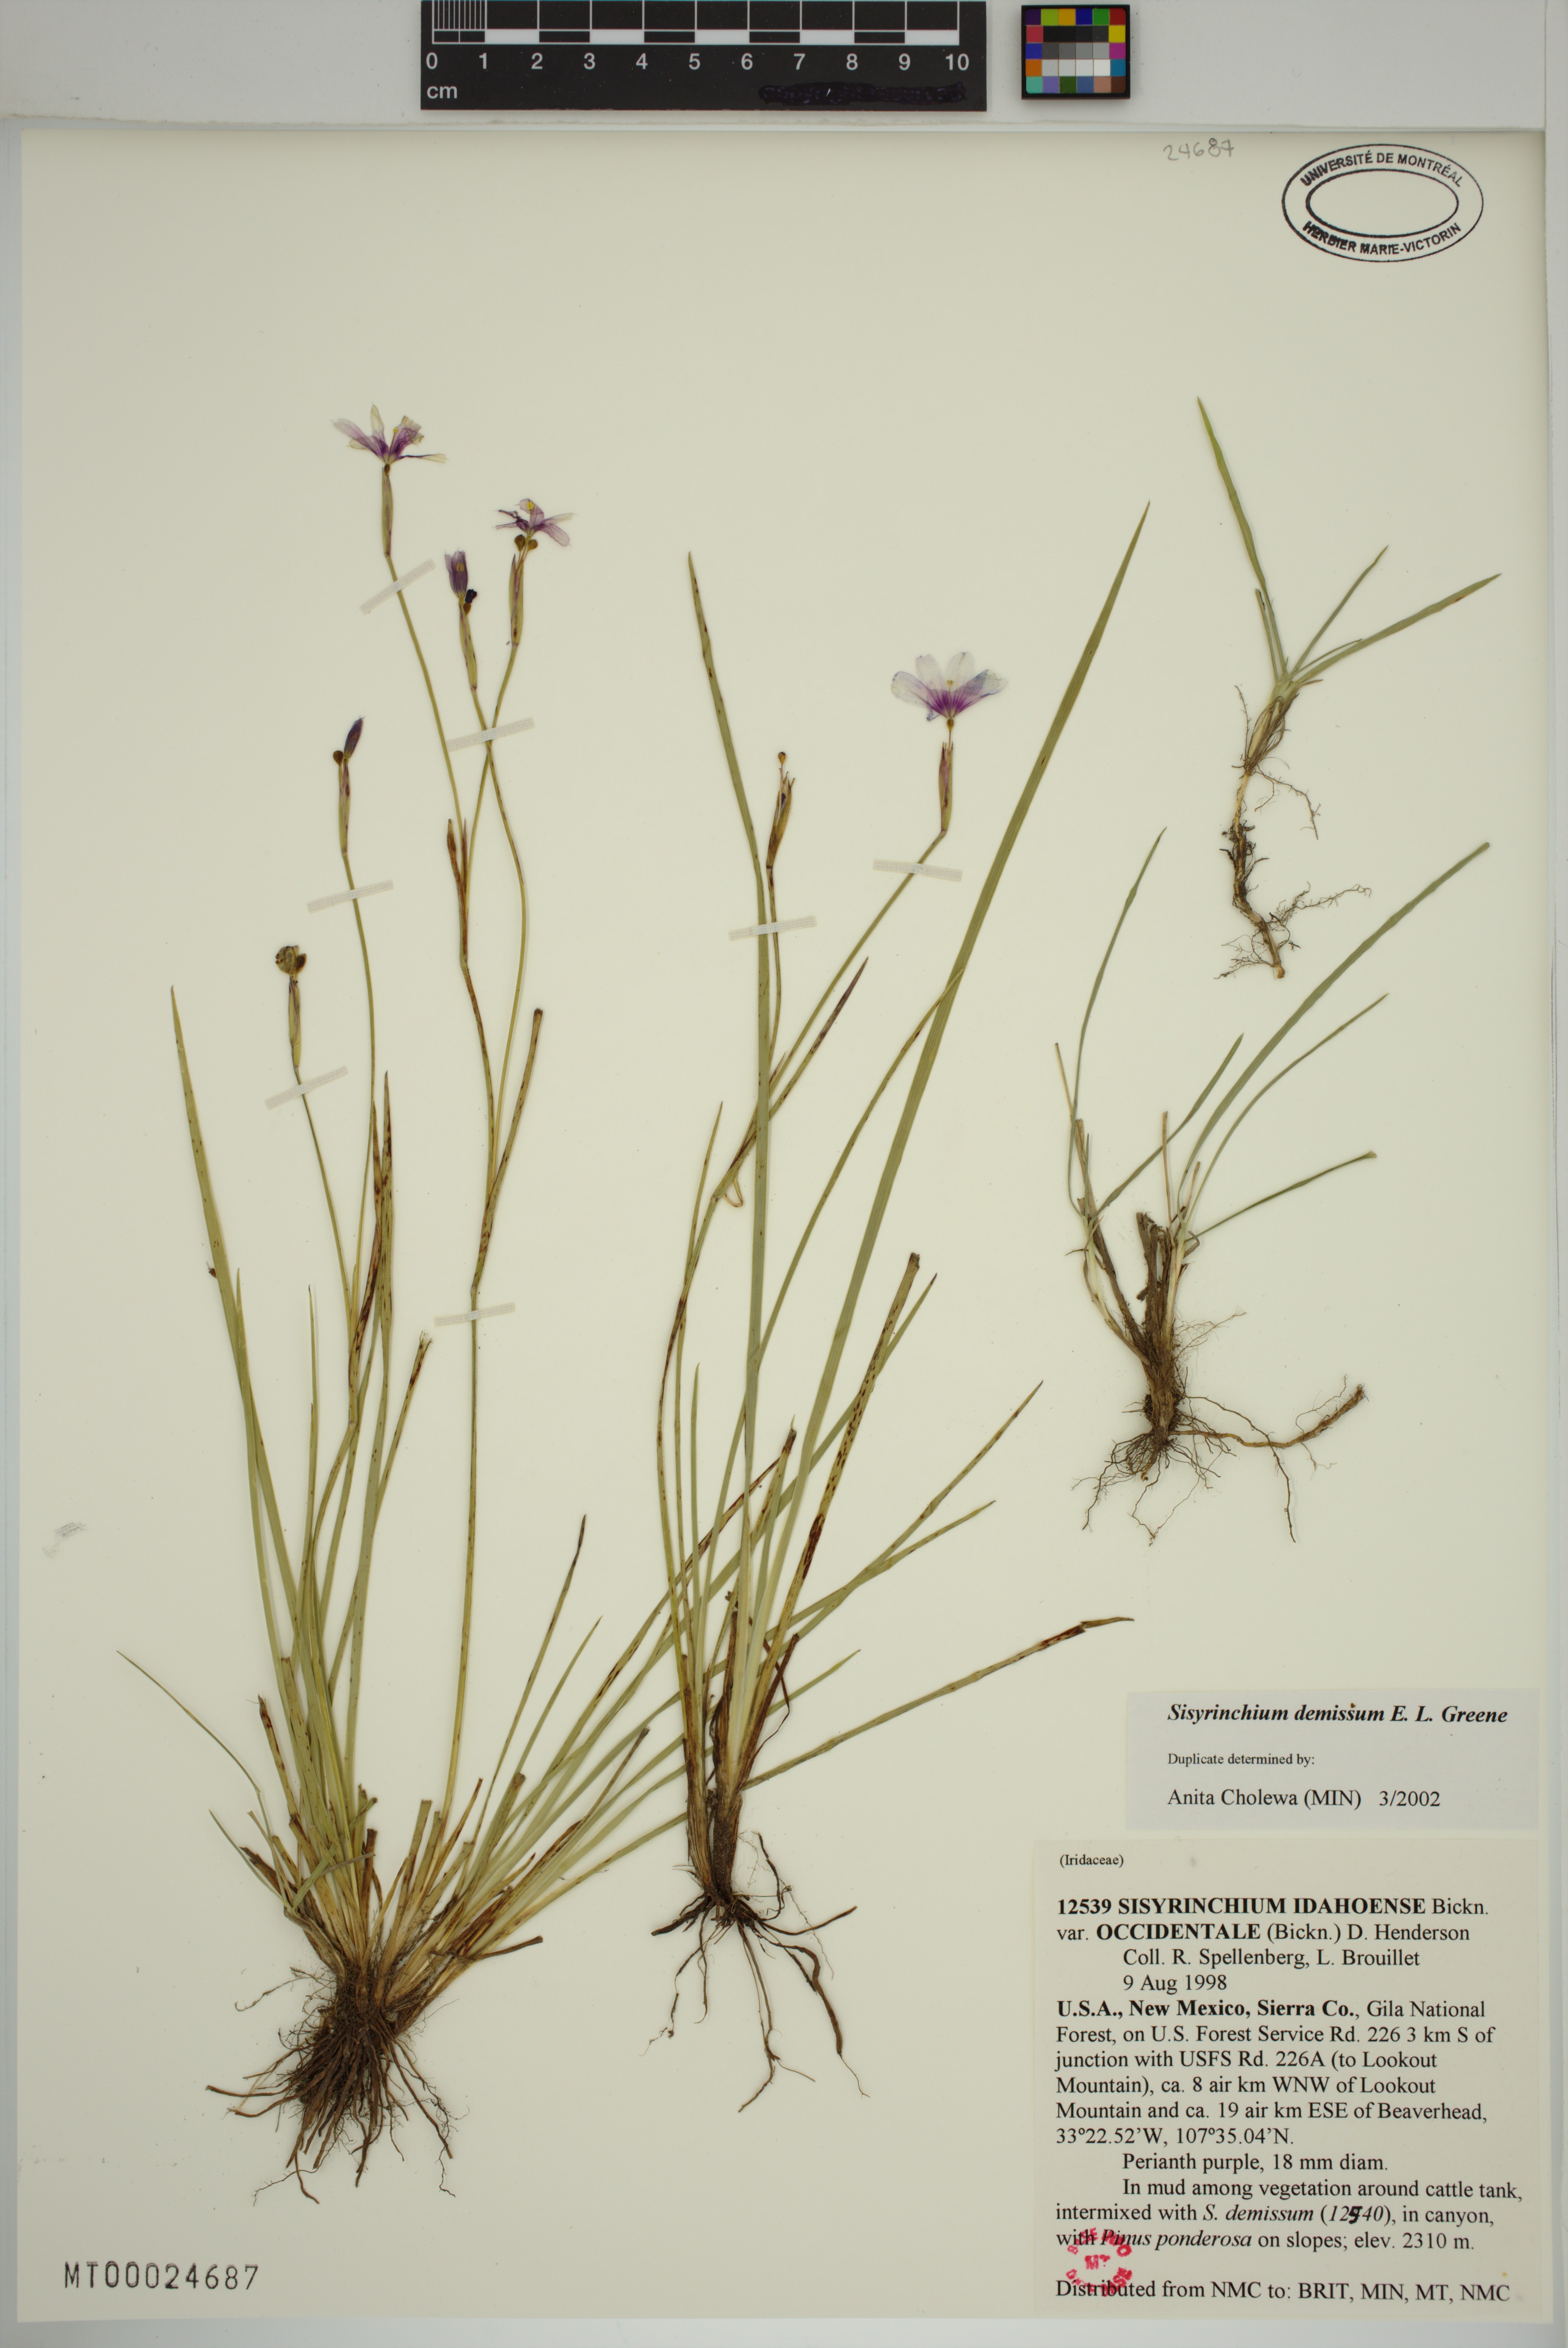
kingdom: Plantae
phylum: Tracheophyta
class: Liliopsida
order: Asparagales
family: Iridaceae
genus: Sisyrinchium
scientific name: Sisyrinchium demissum
